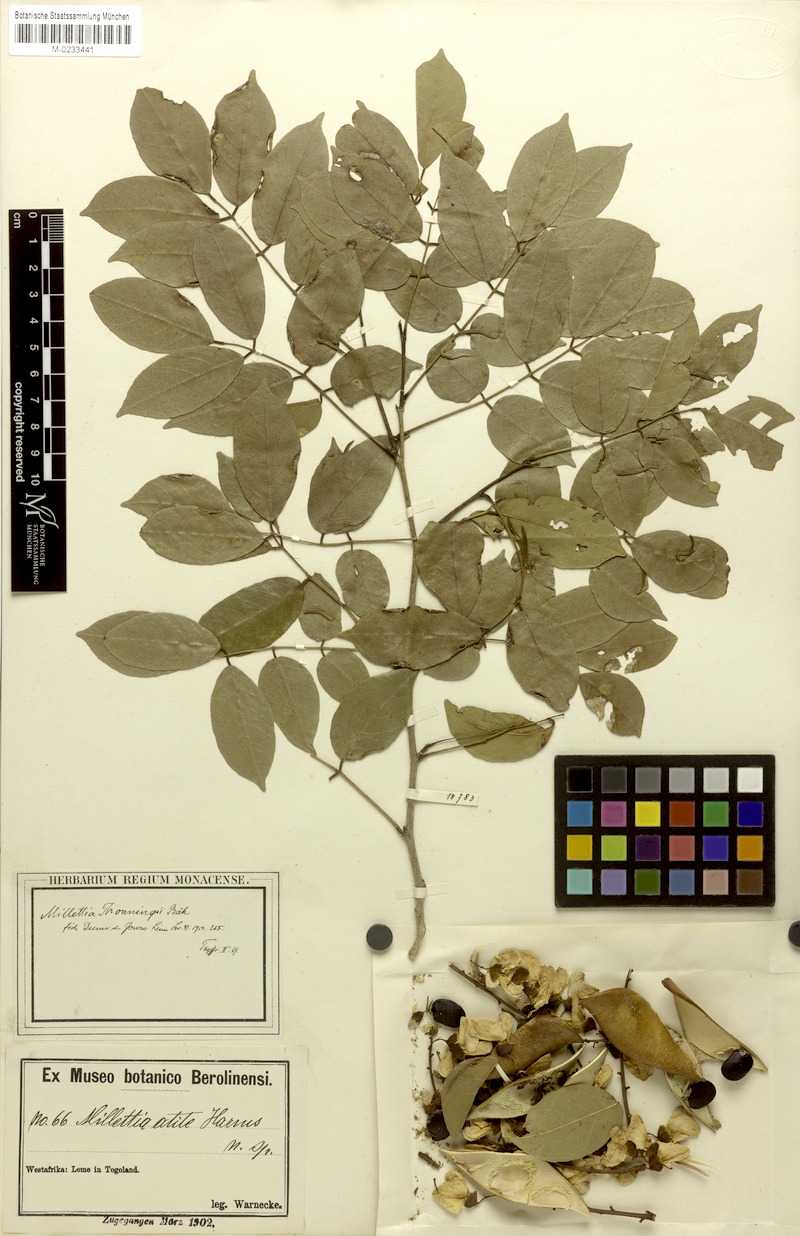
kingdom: Plantae
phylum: Tracheophyta
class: Magnoliopsida
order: Fabales
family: Fabaceae
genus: Millettia
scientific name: Millettia thonningii
